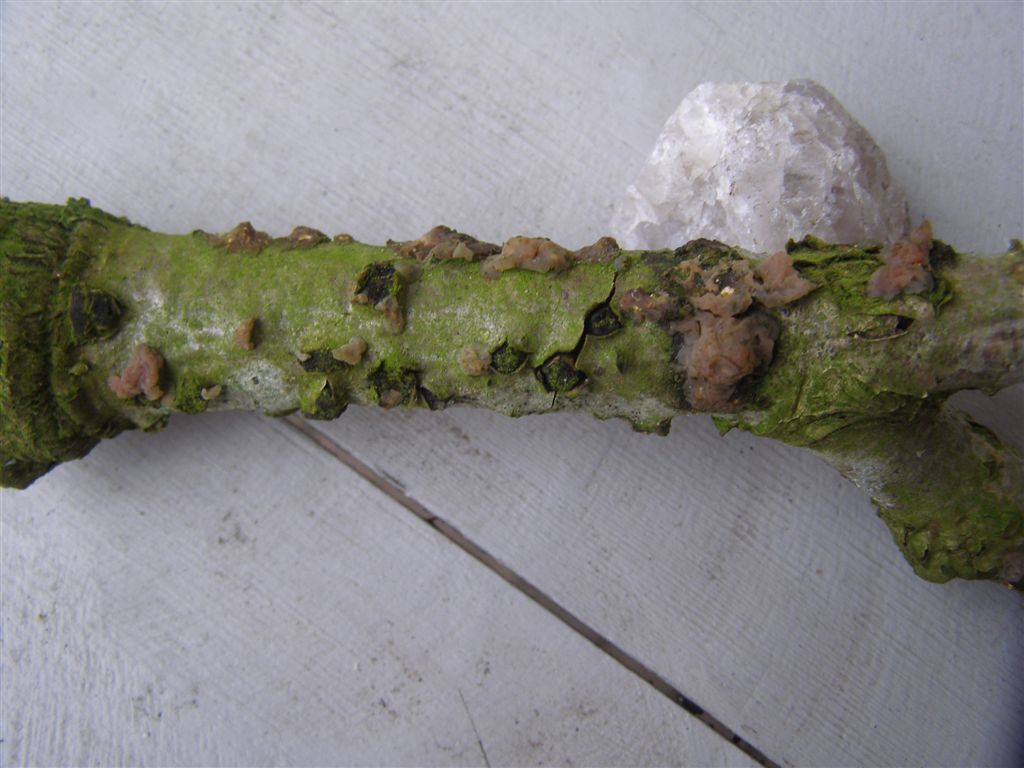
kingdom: Fungi
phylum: Basidiomycota
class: Agaricomycetes
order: Auriculariales
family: Hyaloriaceae
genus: Myxarium
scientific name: Myxarium nucleatum
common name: klar bævretop
